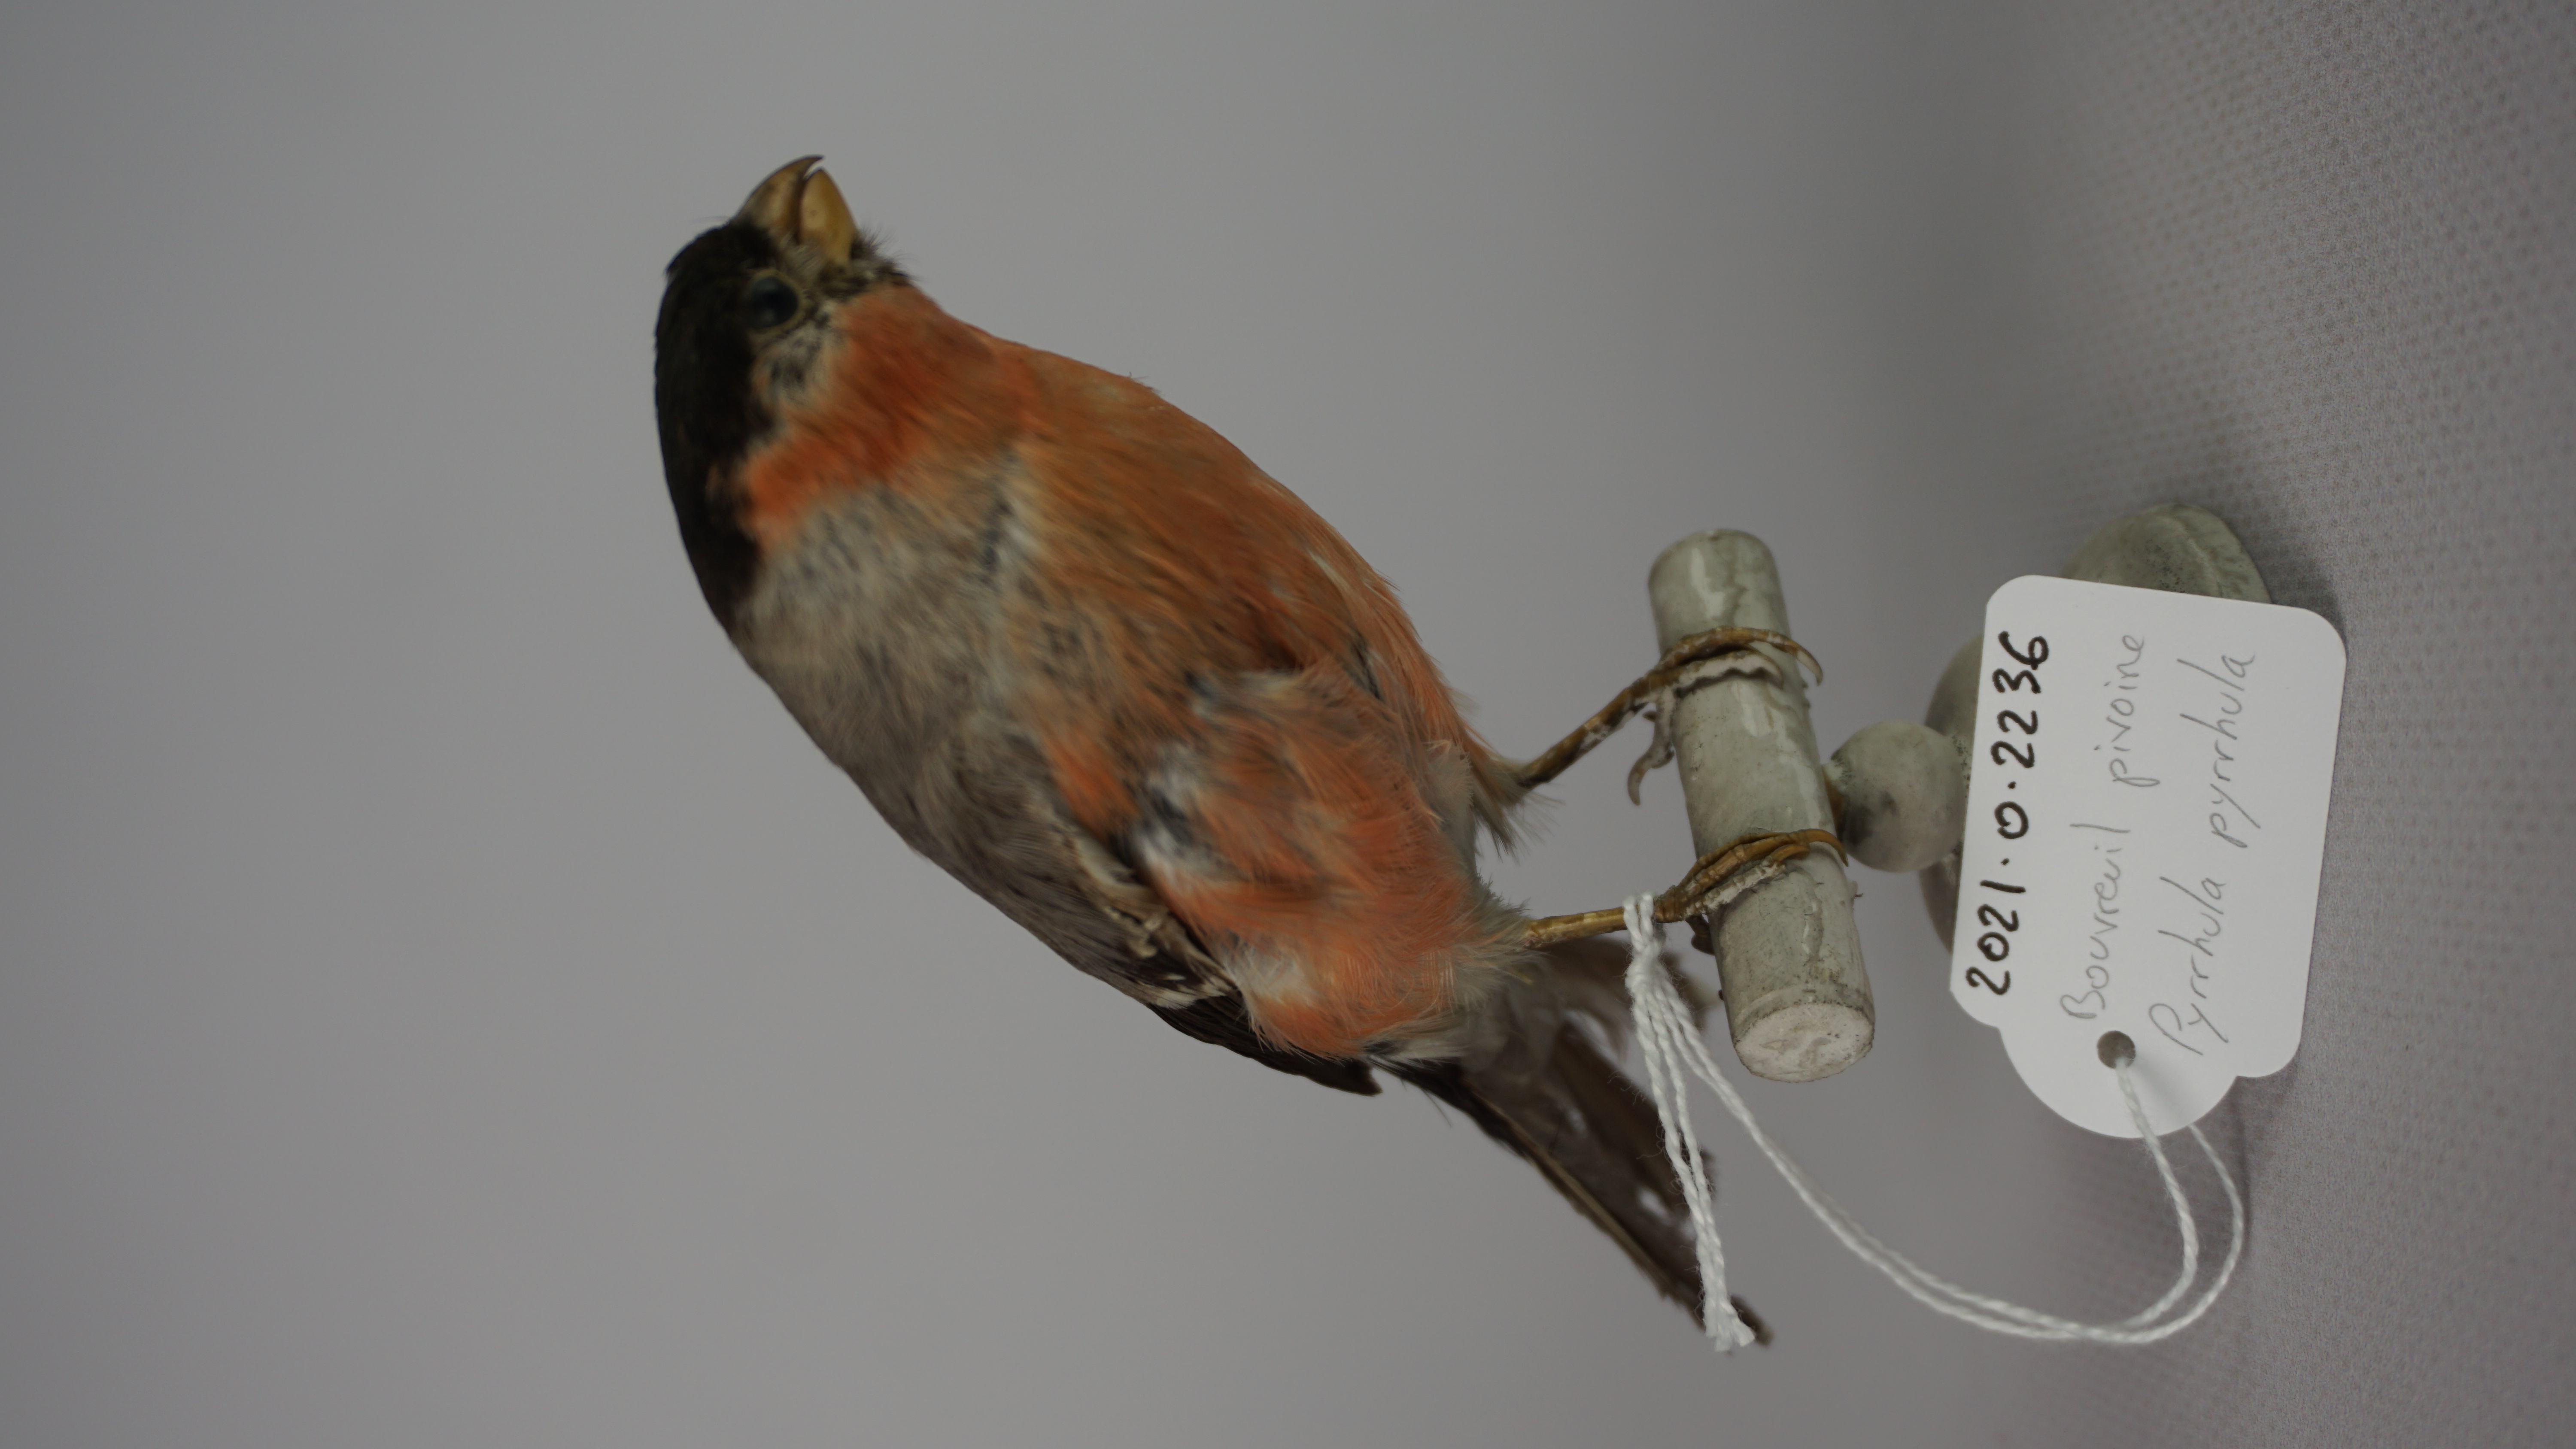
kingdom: Animalia
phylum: Chordata
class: Aves
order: Passeriformes
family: Fringillidae
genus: Pyrrhula
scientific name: Pyrrhula pyrrhula
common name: Eurasian bullfinch
